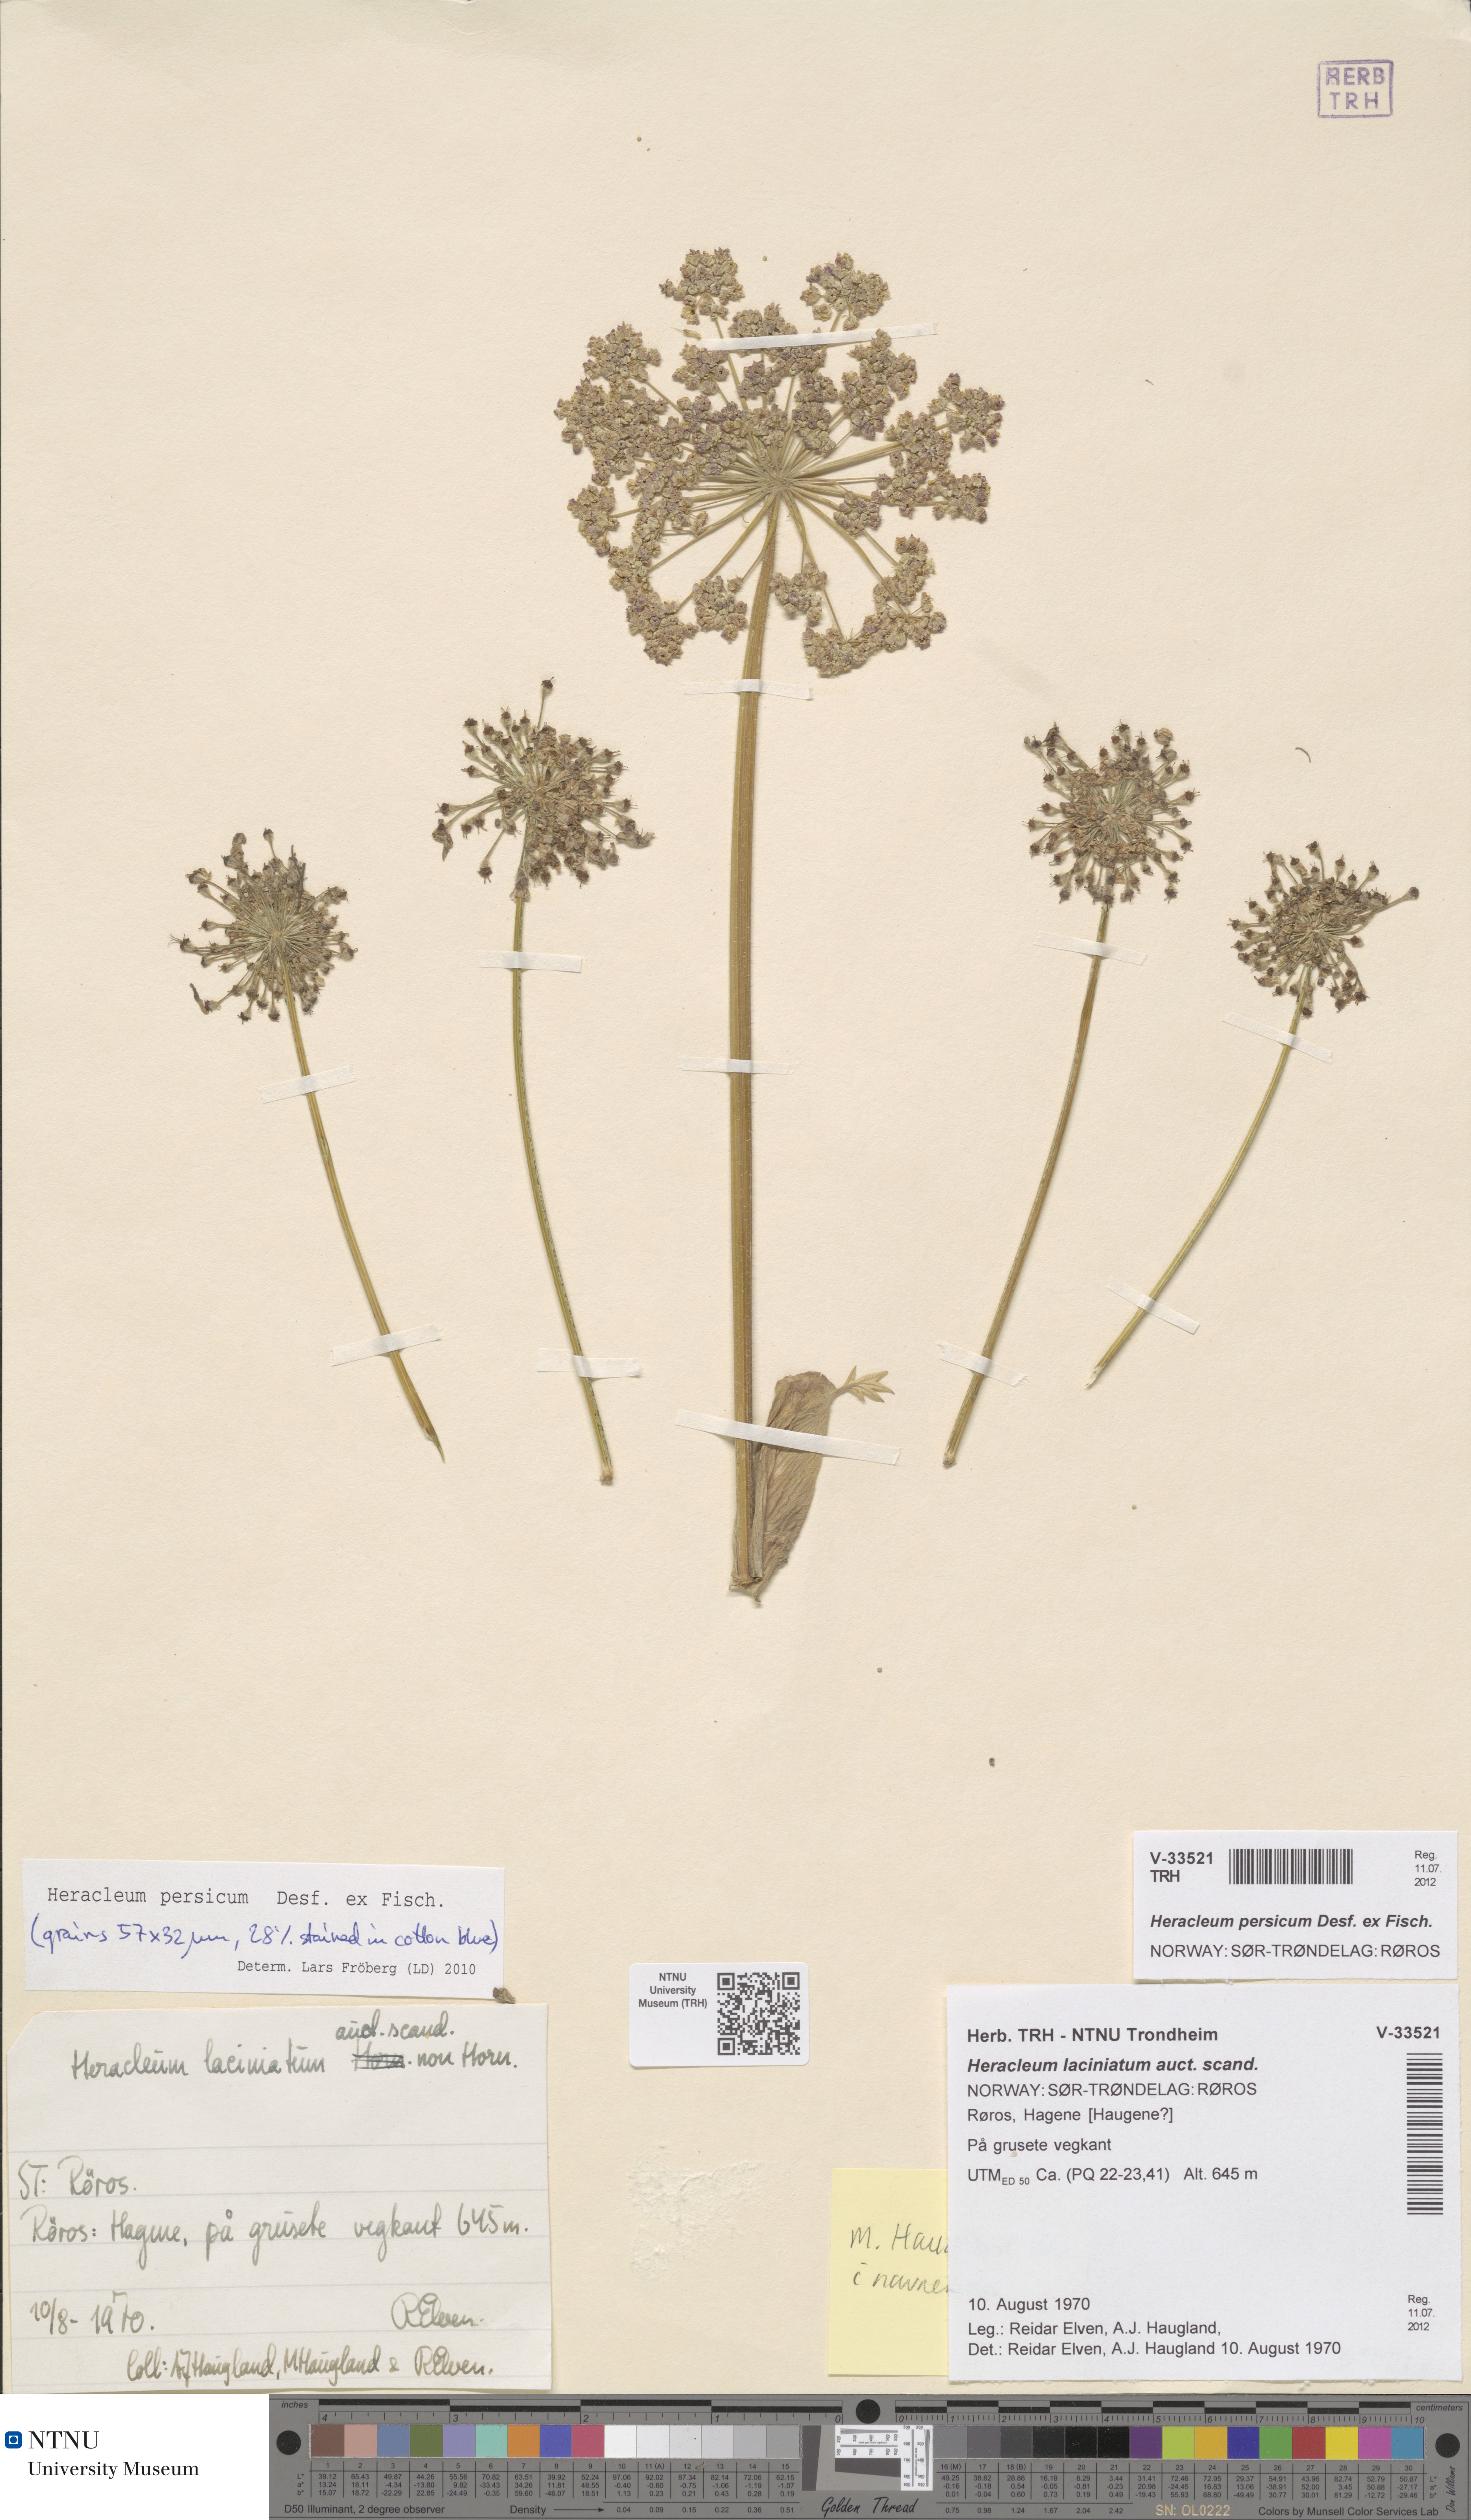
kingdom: Plantae
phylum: Tracheophyta
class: Magnoliopsida
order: Apiales
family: Apiaceae
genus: Heracleum
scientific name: Heracleum persicum
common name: Persian hogweed
